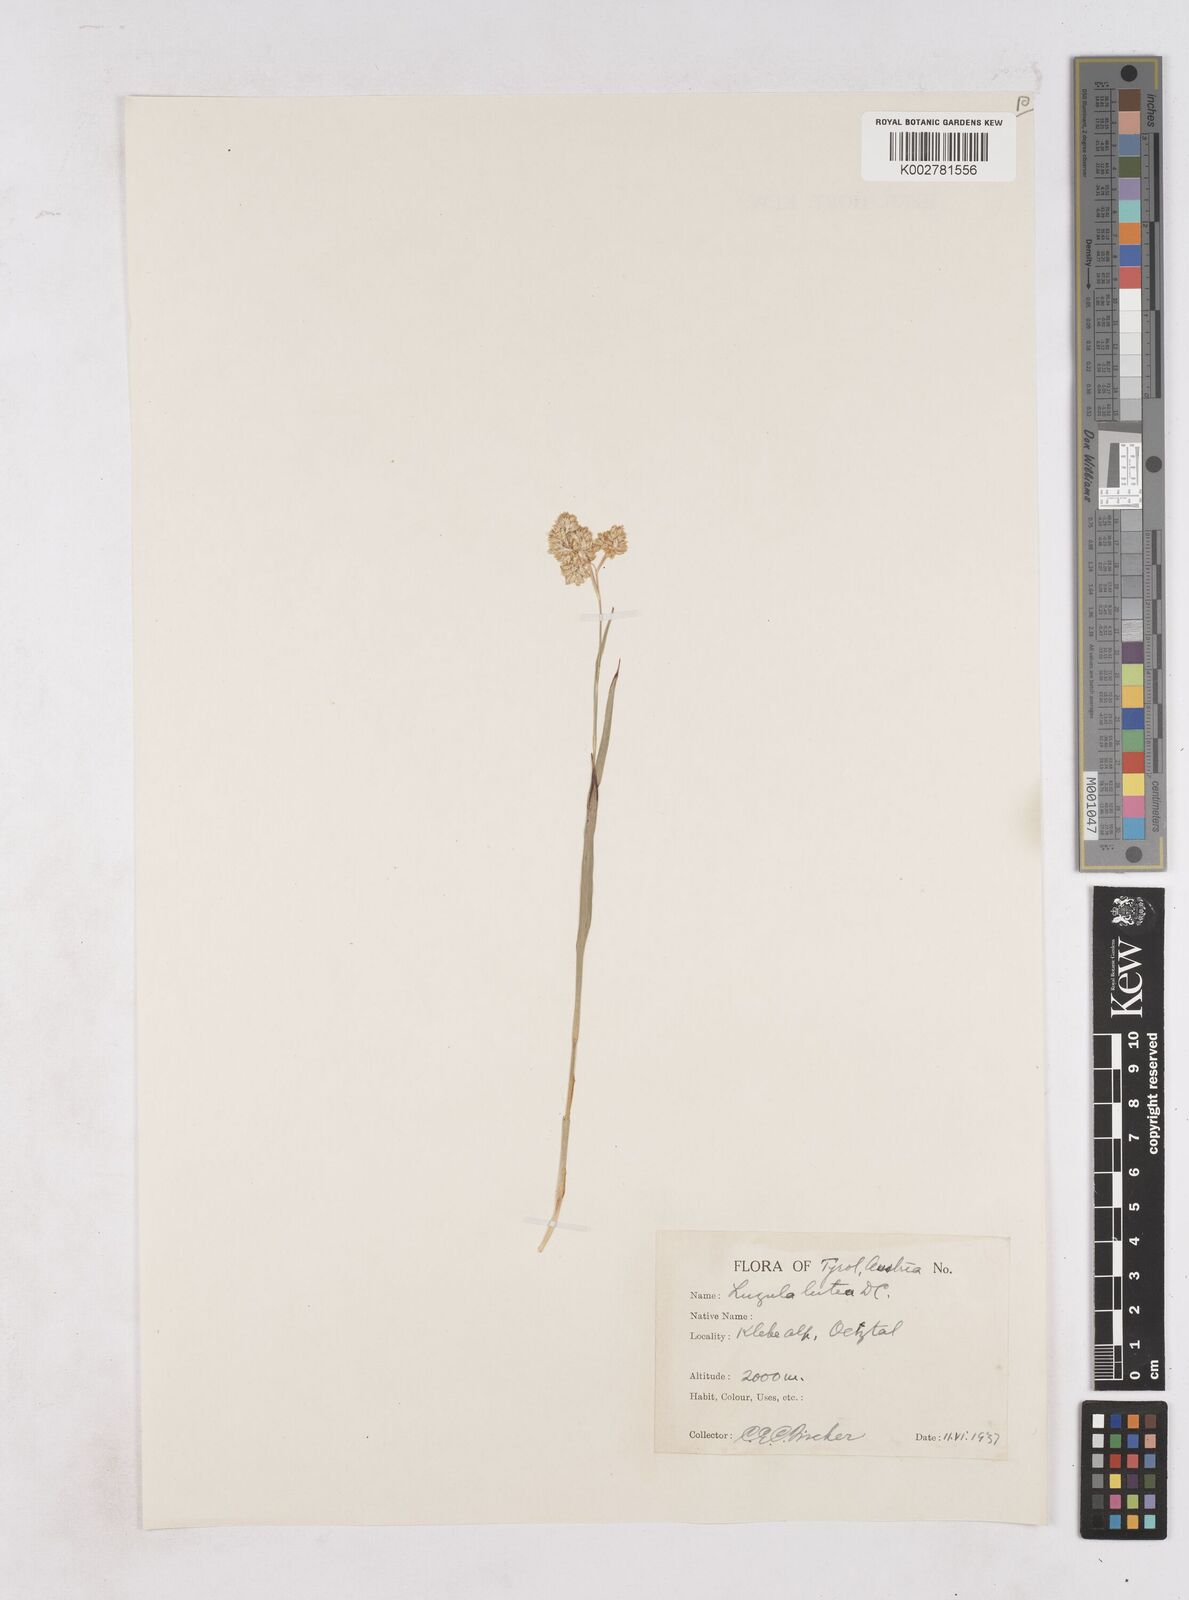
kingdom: Plantae
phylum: Tracheophyta
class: Liliopsida
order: Poales
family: Juncaceae
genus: Luzula
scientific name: Luzula lutea
